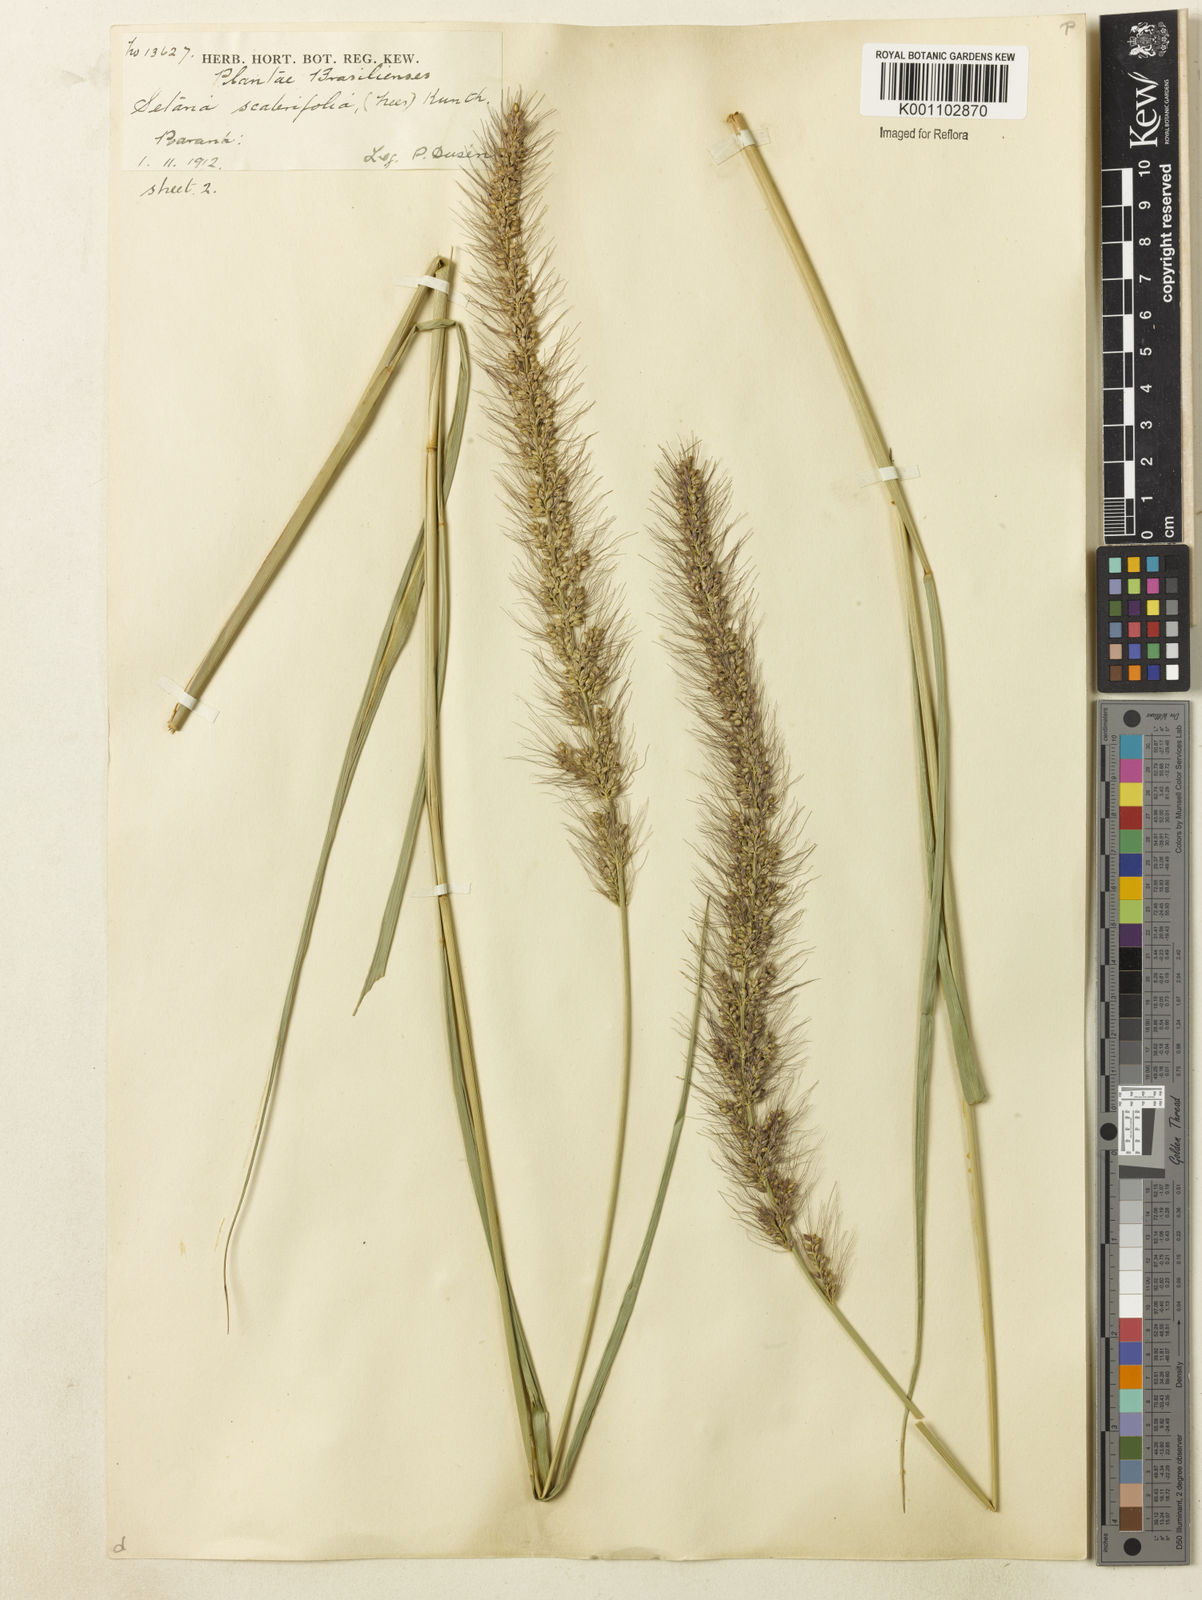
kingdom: Plantae
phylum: Tracheophyta
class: Liliopsida
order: Poales
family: Poaceae
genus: Setaria
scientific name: Setaria scabrifolia
